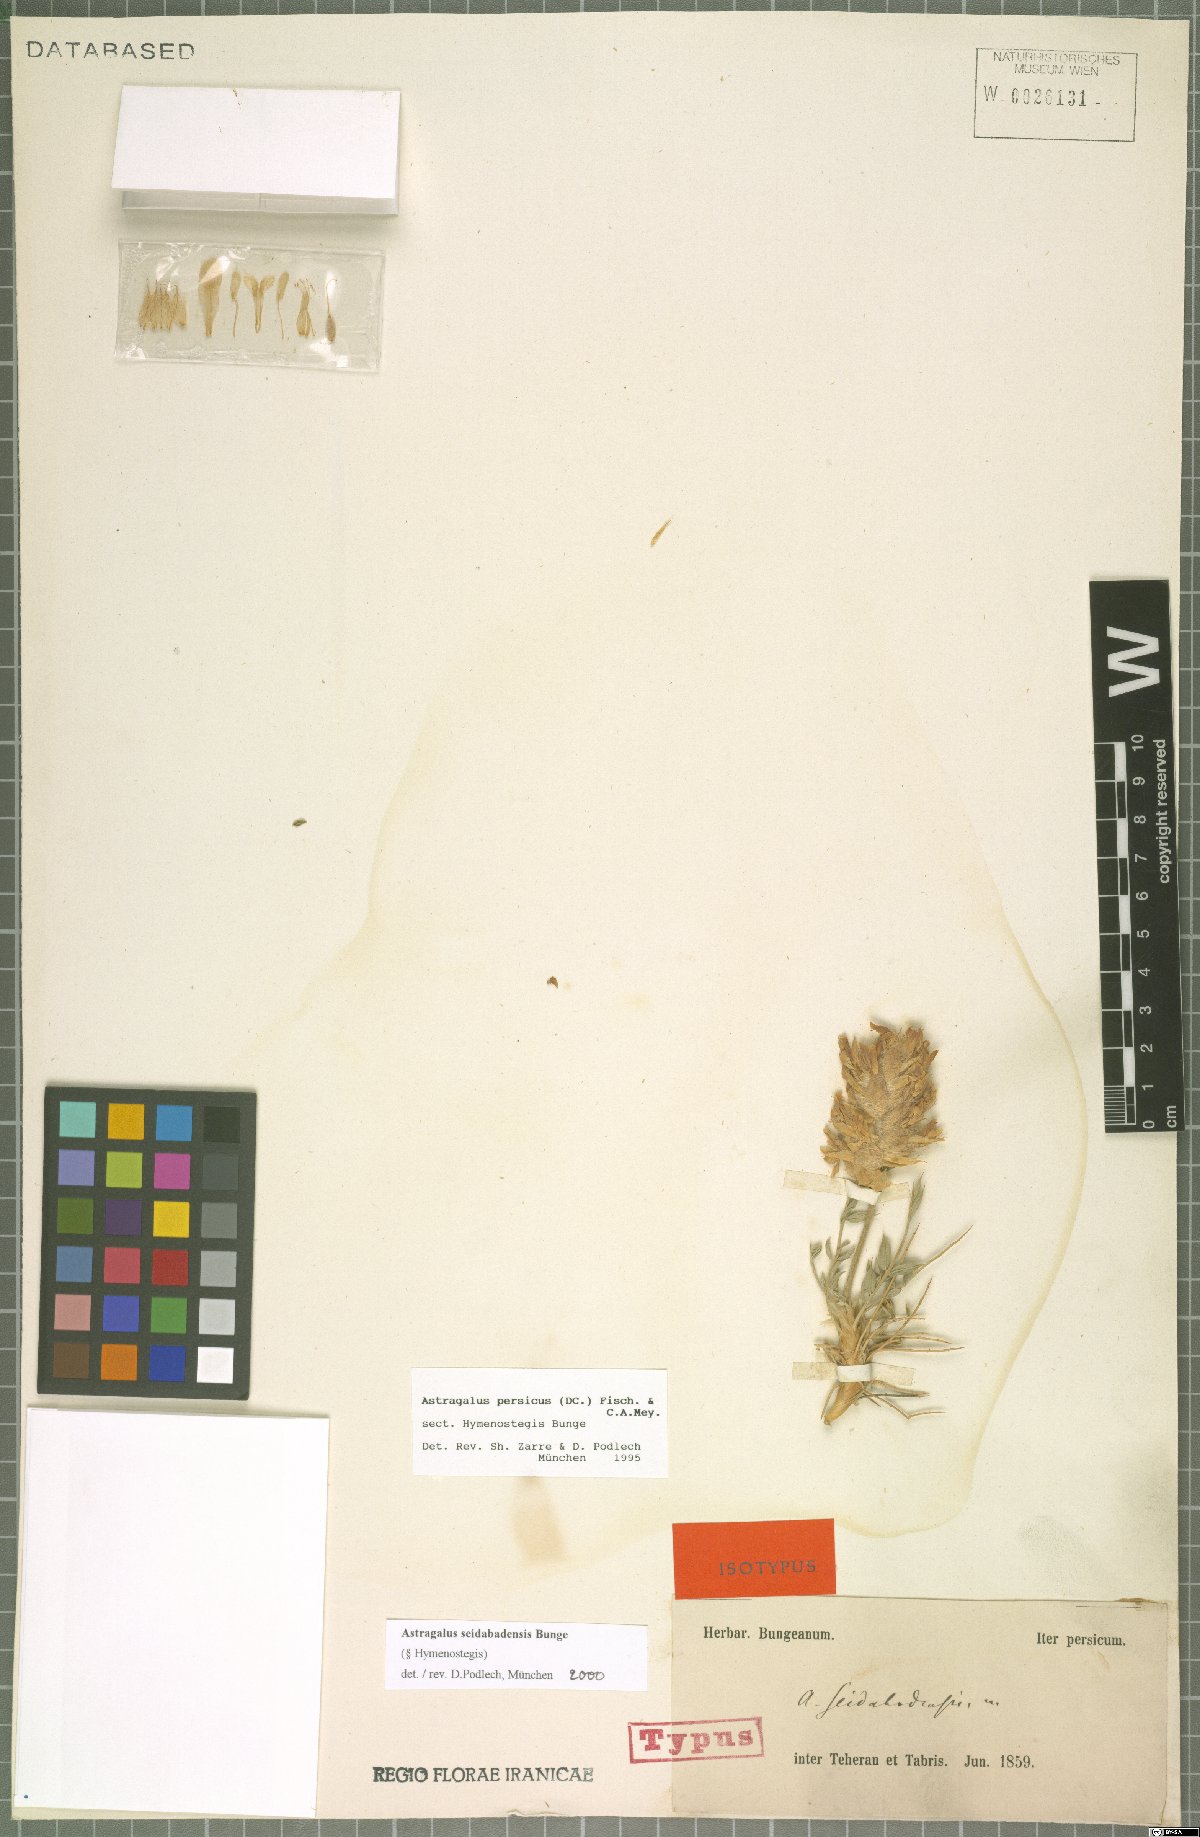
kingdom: Plantae
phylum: Tracheophyta
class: Magnoliopsida
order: Fabales
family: Fabaceae
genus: Astragalus
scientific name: Astragalus seidabadensis
